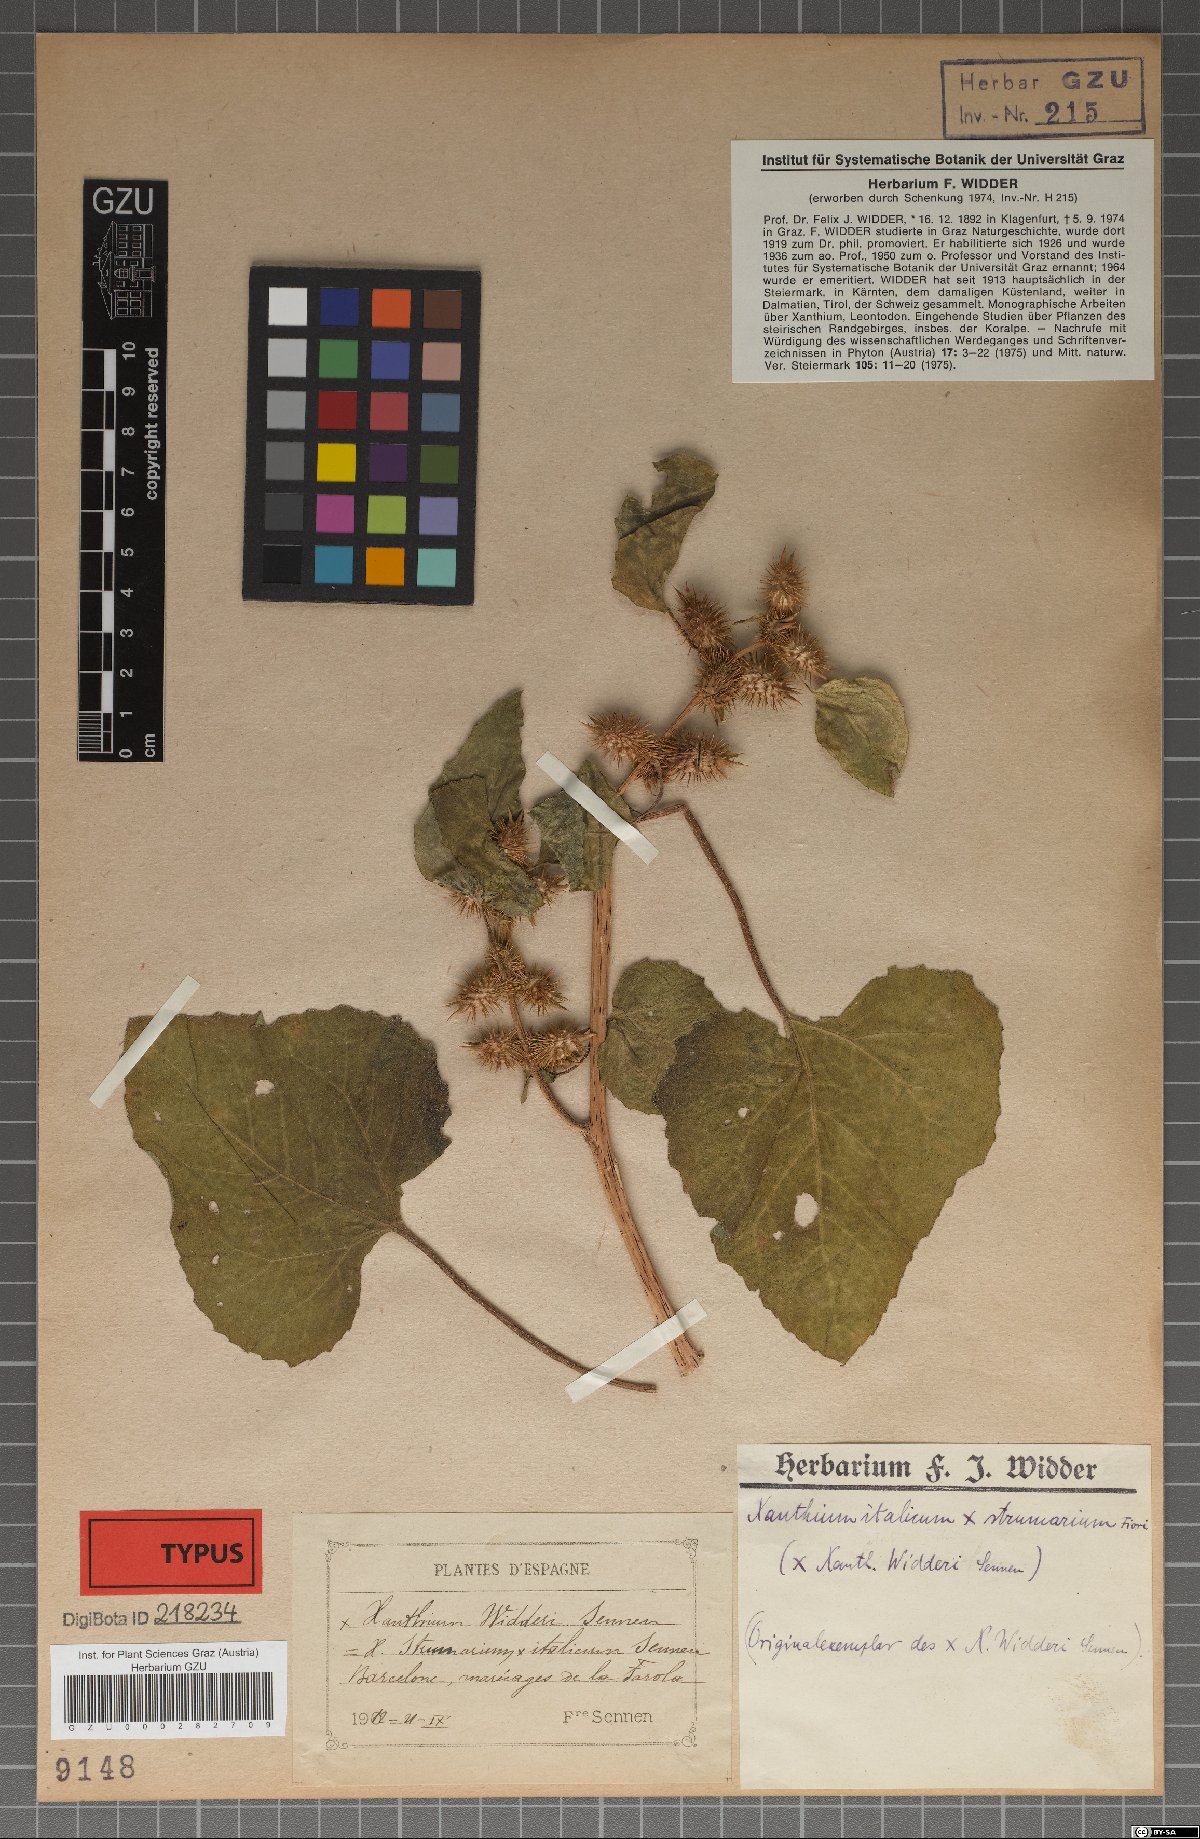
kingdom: Plantae
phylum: Tracheophyta
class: Magnoliopsida
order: Asterales
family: Asteraceae
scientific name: Asteraceae
